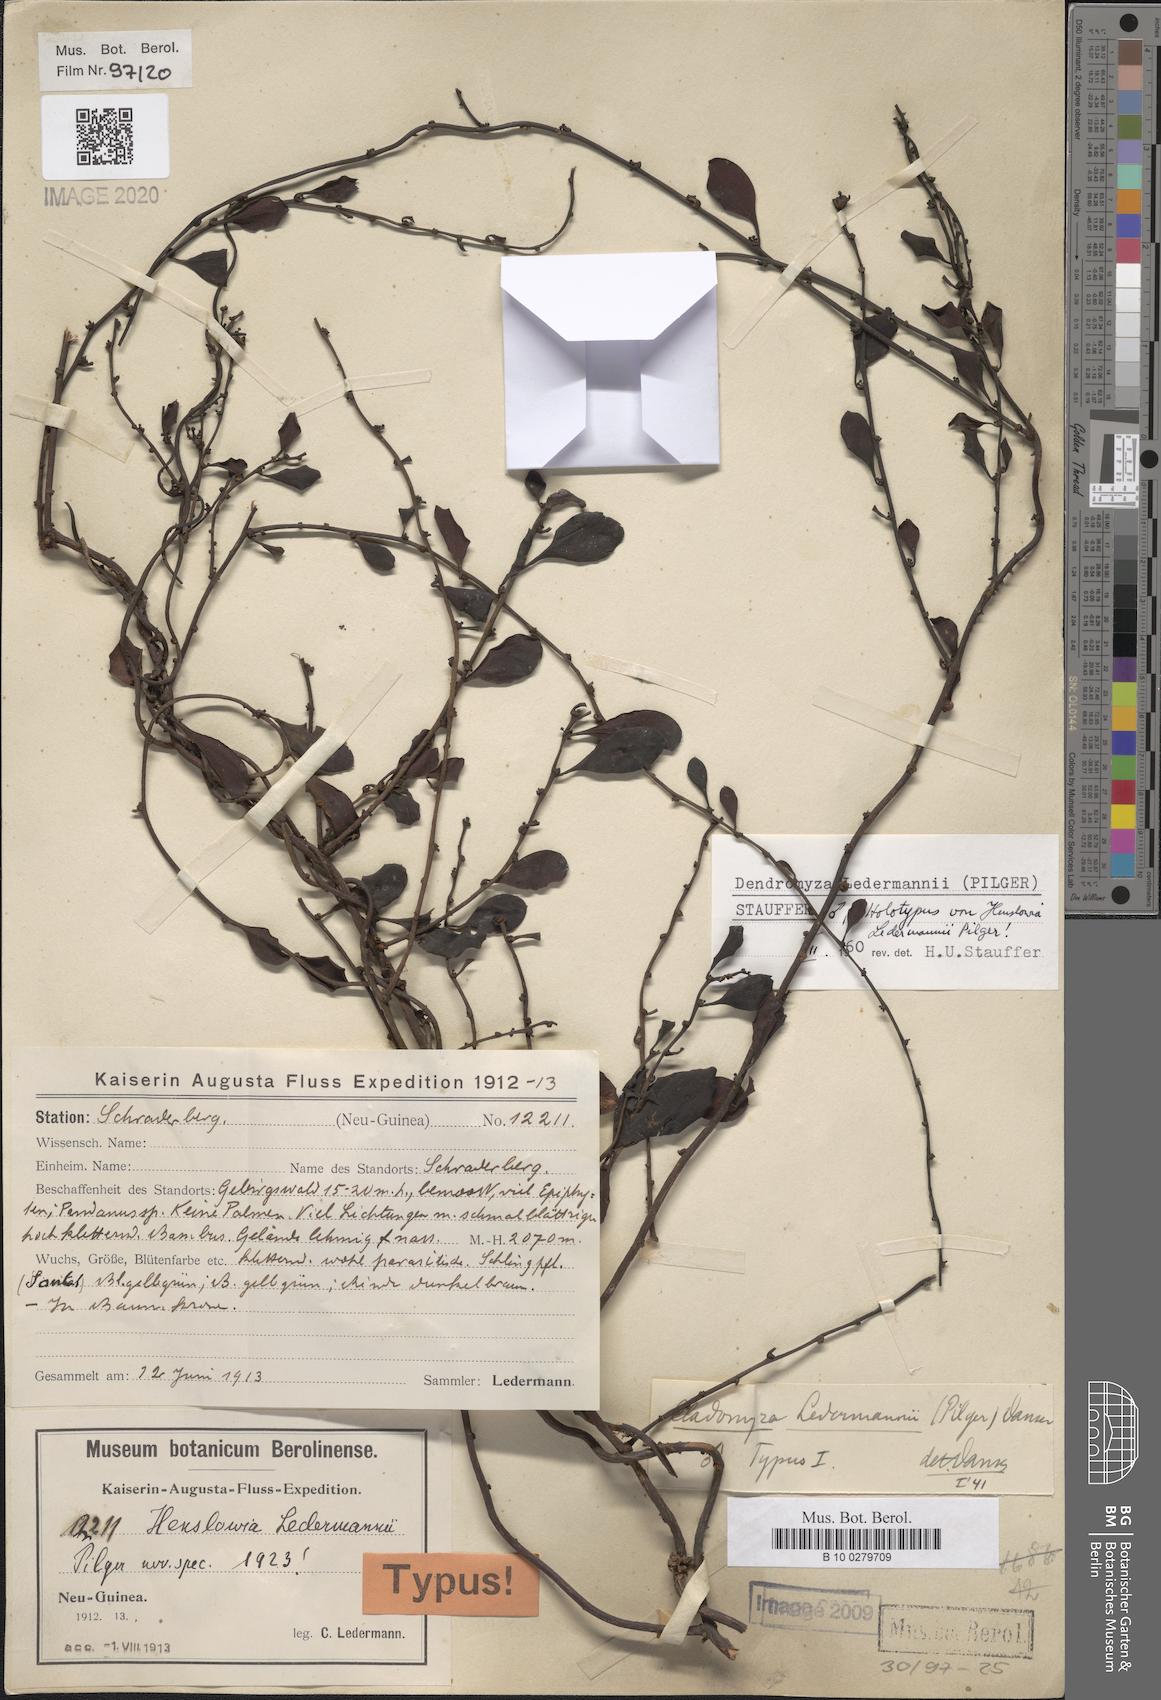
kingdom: Plantae
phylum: Tracheophyta
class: Magnoliopsida
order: Santalales
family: Amphorogynaceae
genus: Dendromyza
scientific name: Dendromyza ledermannii
